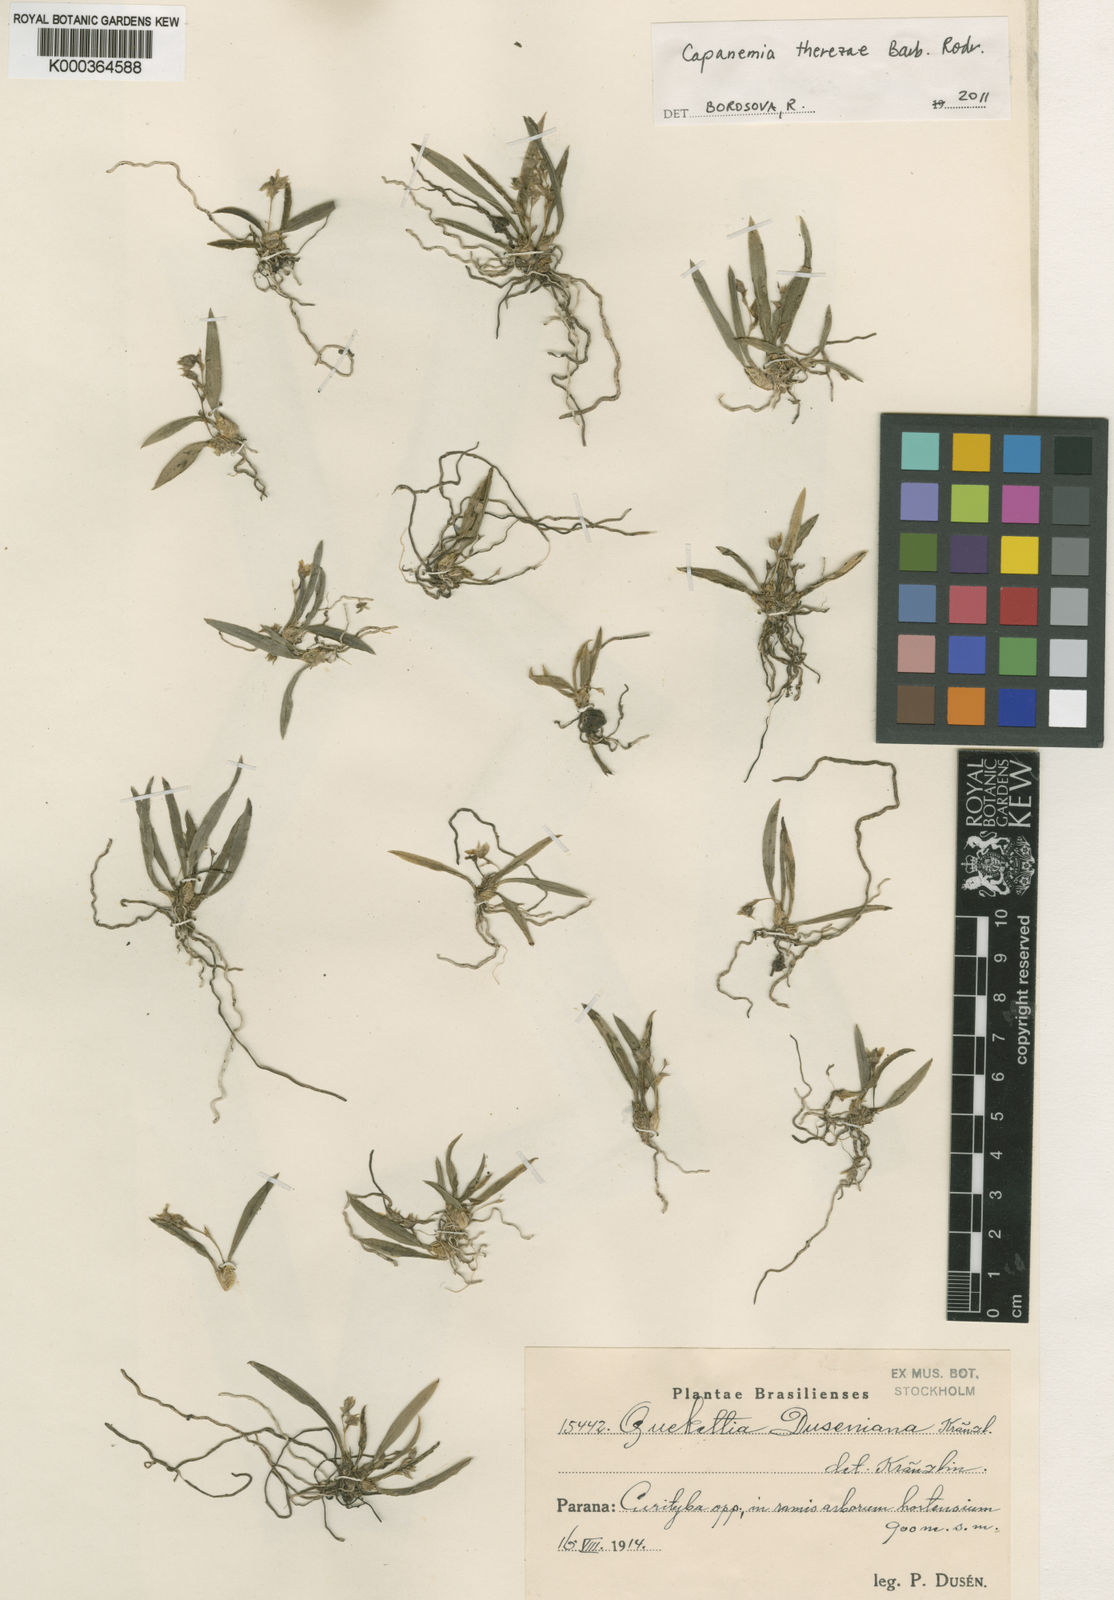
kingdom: Plantae
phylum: Tracheophyta
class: Liliopsida
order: Asparagales
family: Orchidaceae
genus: Capanemia
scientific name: Capanemia theresae
